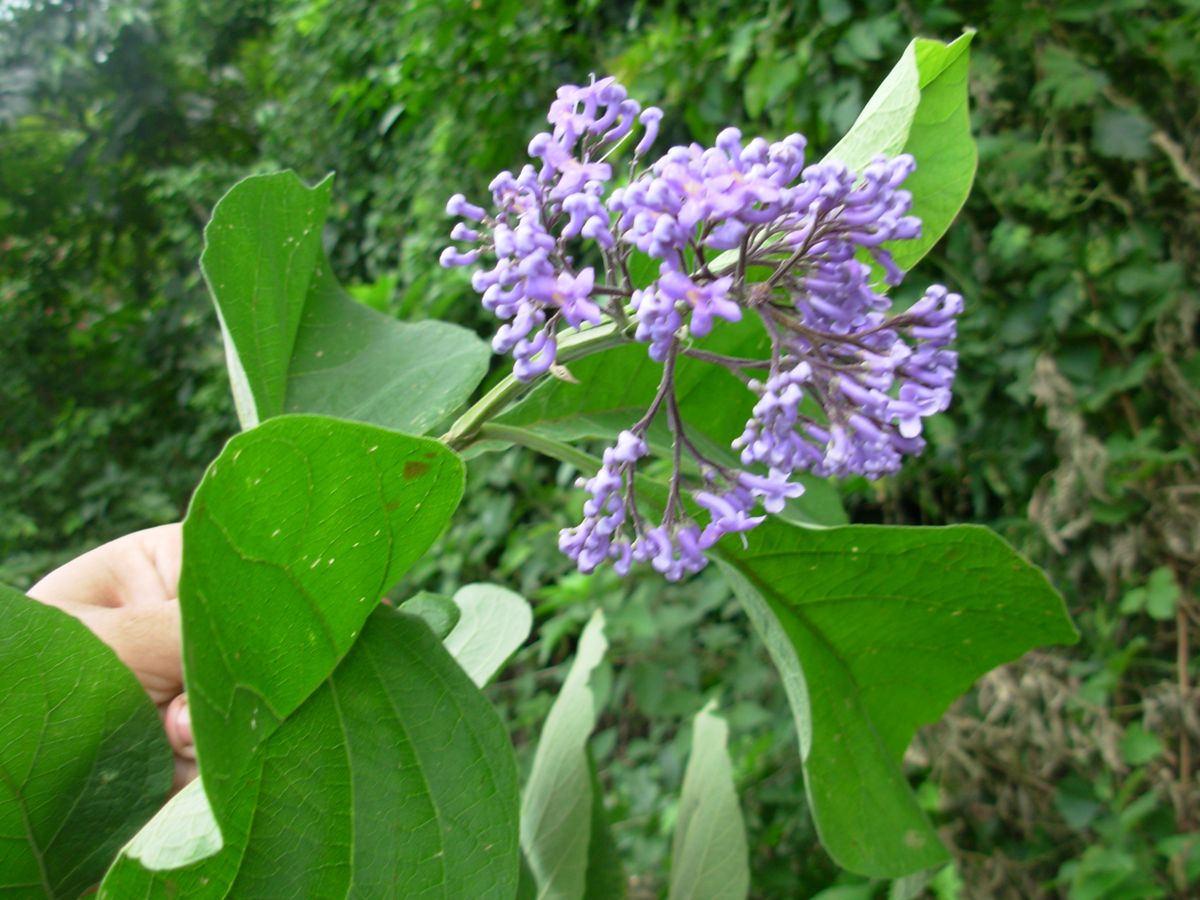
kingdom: Plantae
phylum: Tracheophyta
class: Magnoliopsida
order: Lamiales
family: Lamiaceae
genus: Cornutia
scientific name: Cornutia pyramidata
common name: Azulejo
